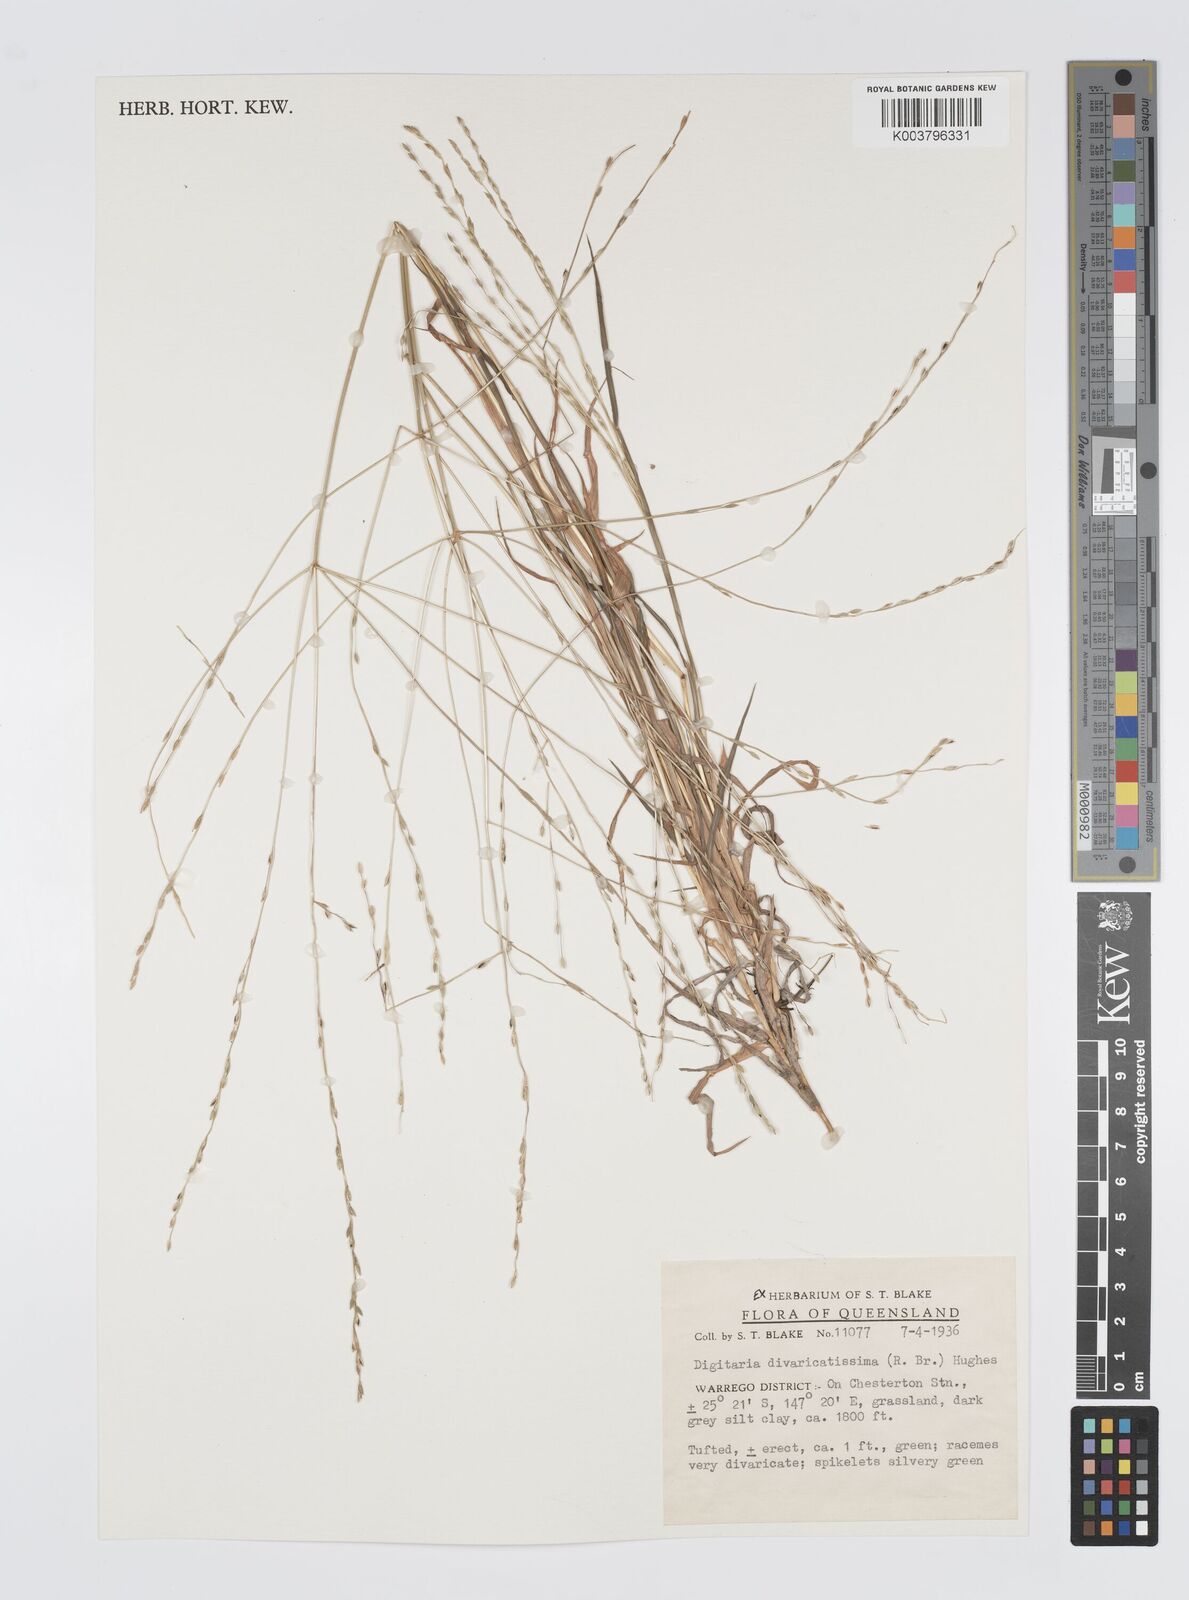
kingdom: Plantae
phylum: Tracheophyta
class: Liliopsida
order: Poales
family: Poaceae
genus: Digitaria
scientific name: Digitaria spec
